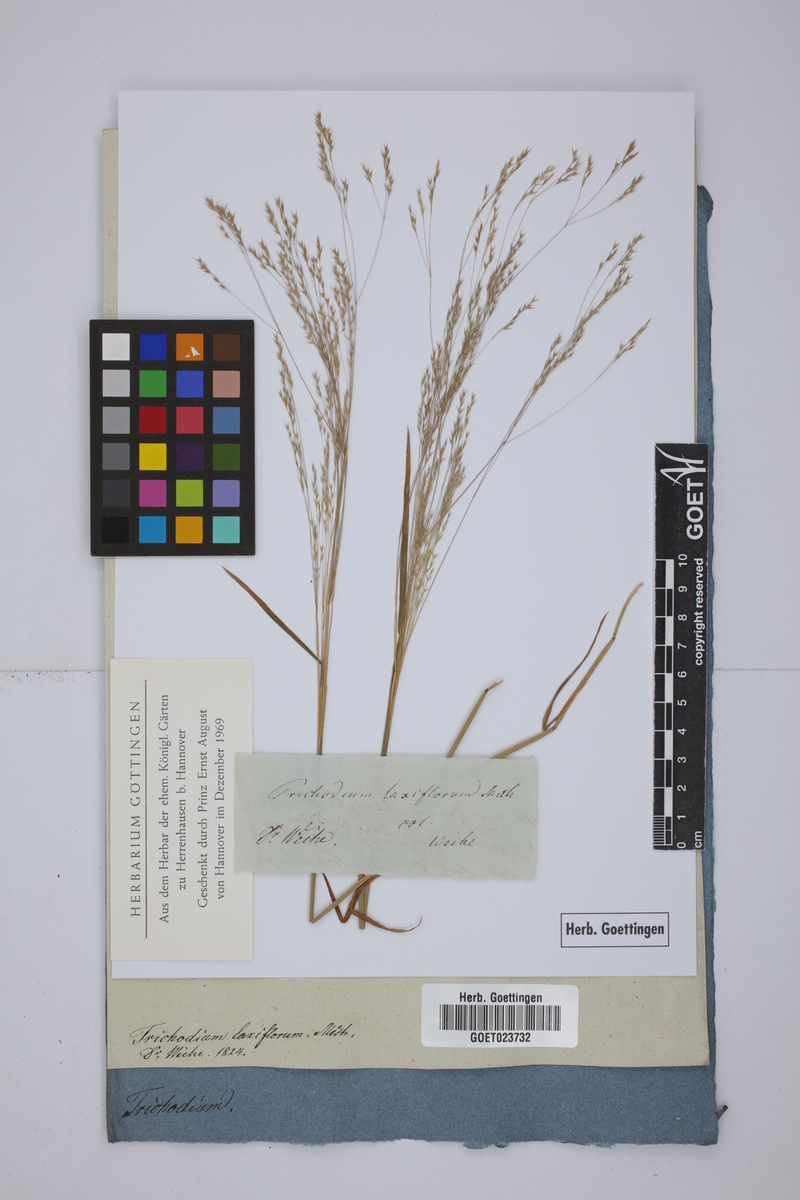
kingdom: Plantae
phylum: Tracheophyta
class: Liliopsida
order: Poales
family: Poaceae
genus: Agrostis
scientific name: Agrostis scabra
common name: Rough bent
